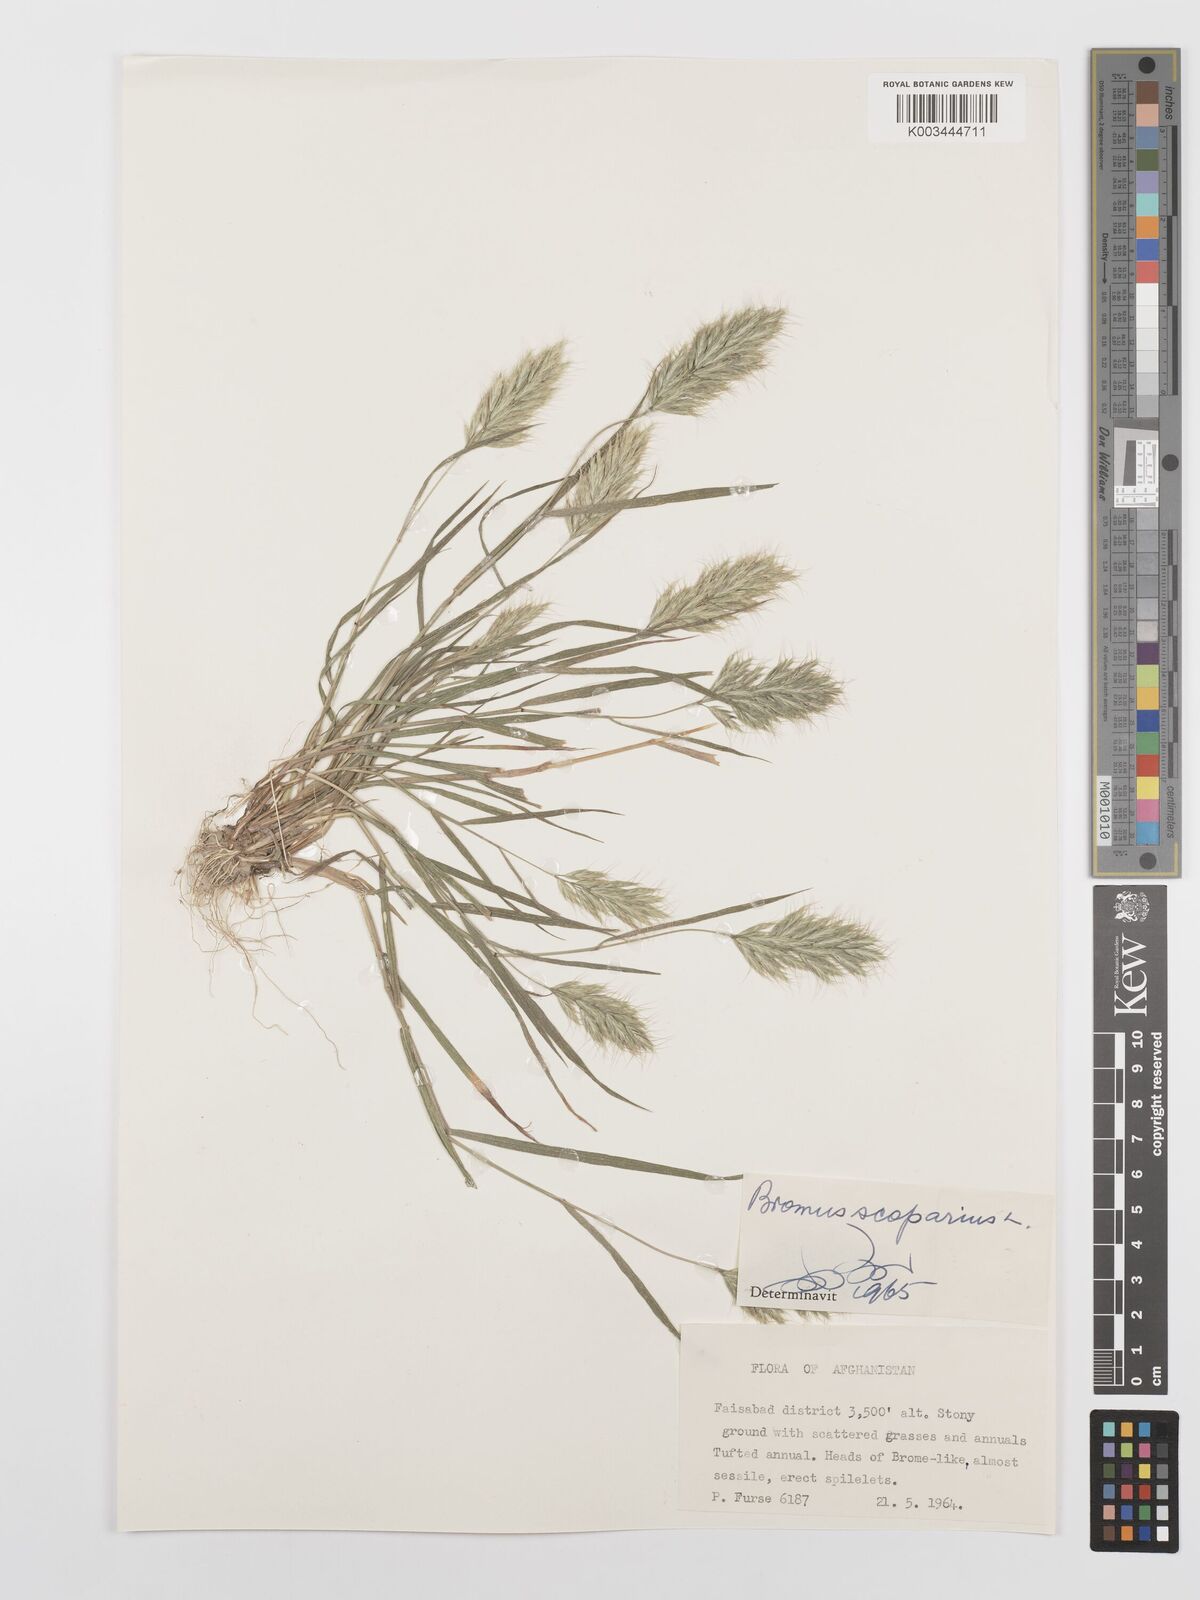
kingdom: Plantae
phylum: Tracheophyta
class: Liliopsida
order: Poales
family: Poaceae
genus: Bromus
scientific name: Bromus scoparius
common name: Broom brome
